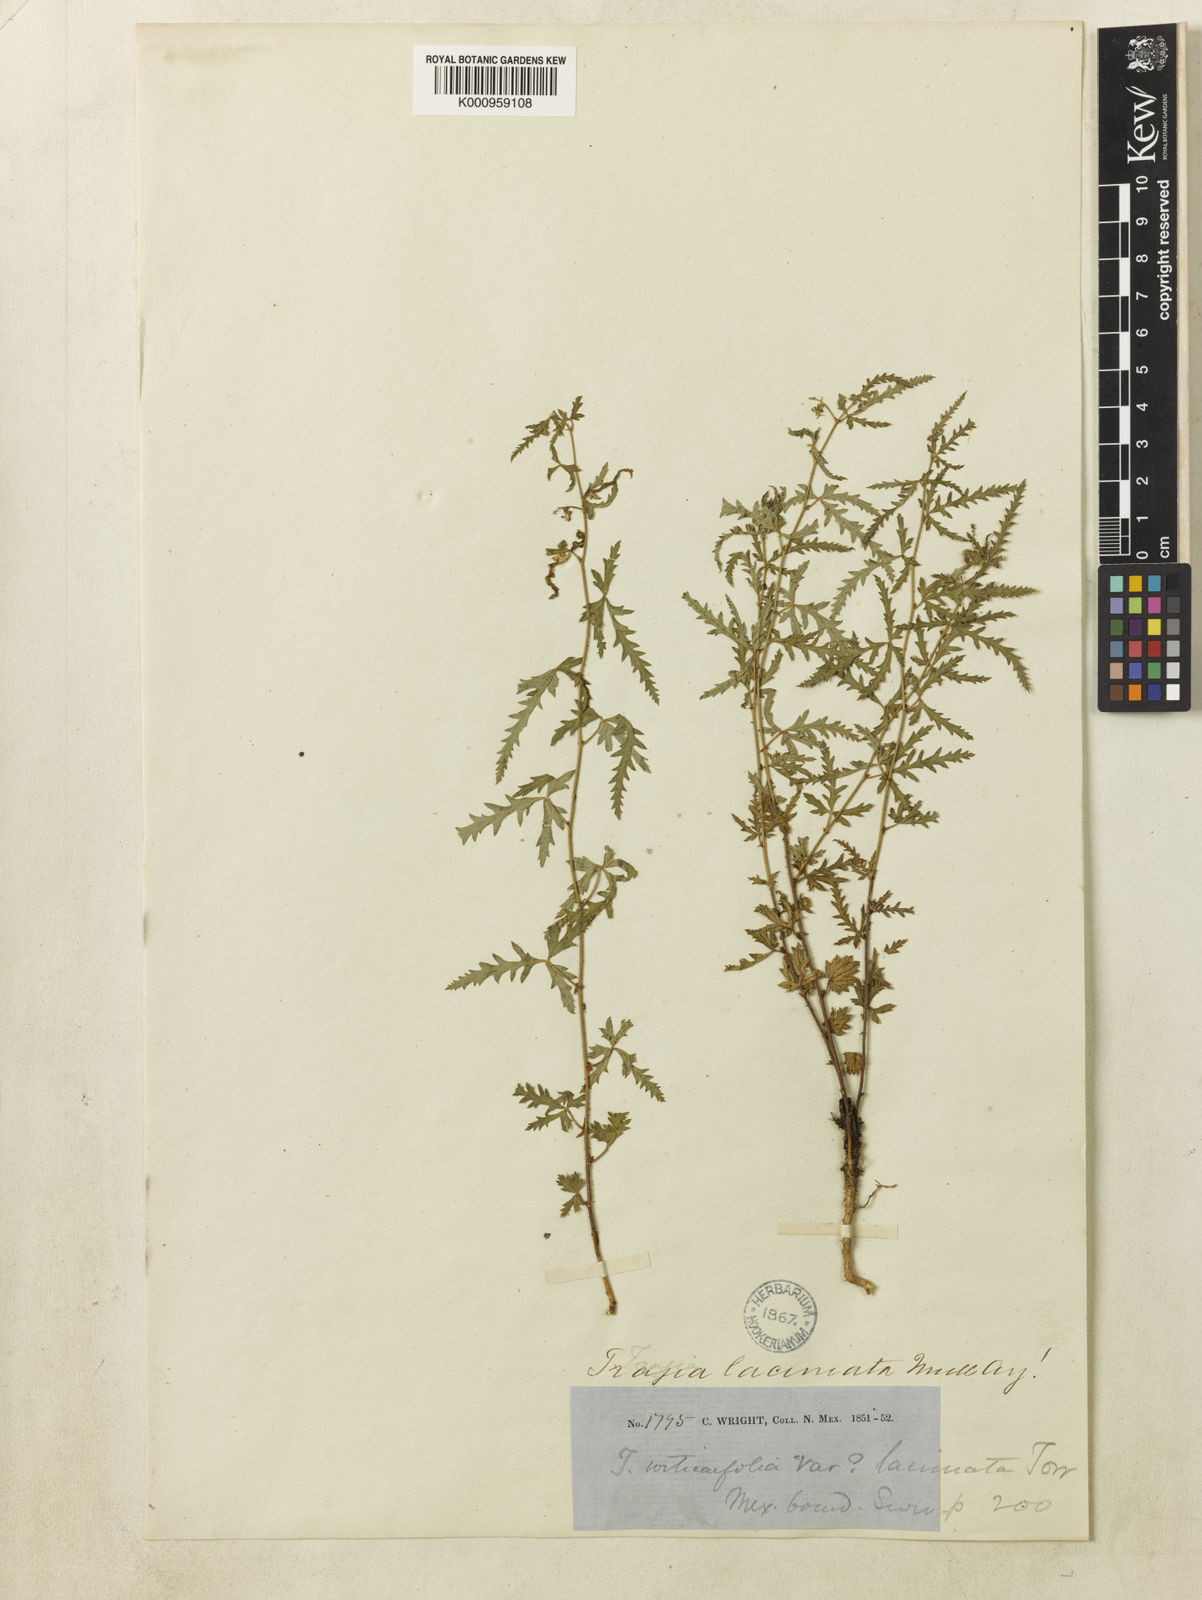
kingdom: Plantae
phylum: Tracheophyta
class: Magnoliopsida
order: Malpighiales
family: Euphorbiaceae
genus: Tragia
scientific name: Tragia
